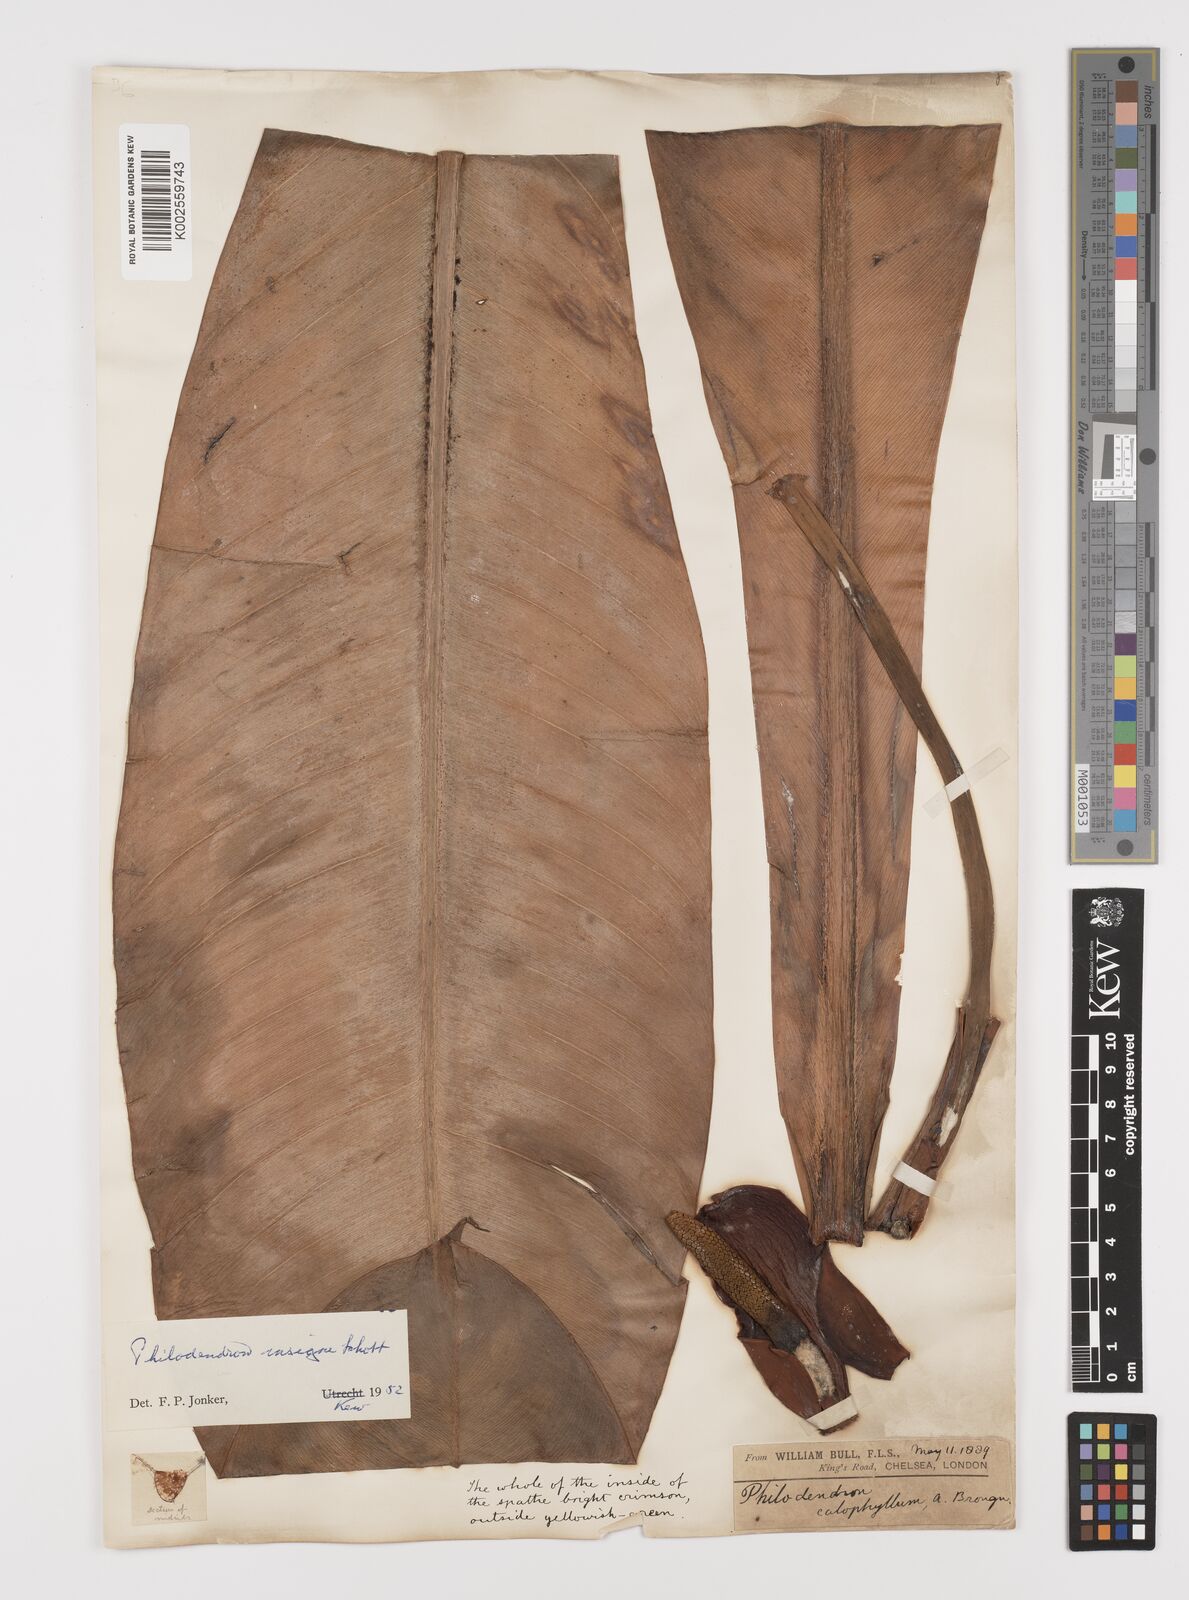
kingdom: Plantae
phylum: Tracheophyta
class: Liliopsida
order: Alismatales
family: Araceae
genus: Philodendron
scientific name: Philodendron insigne
